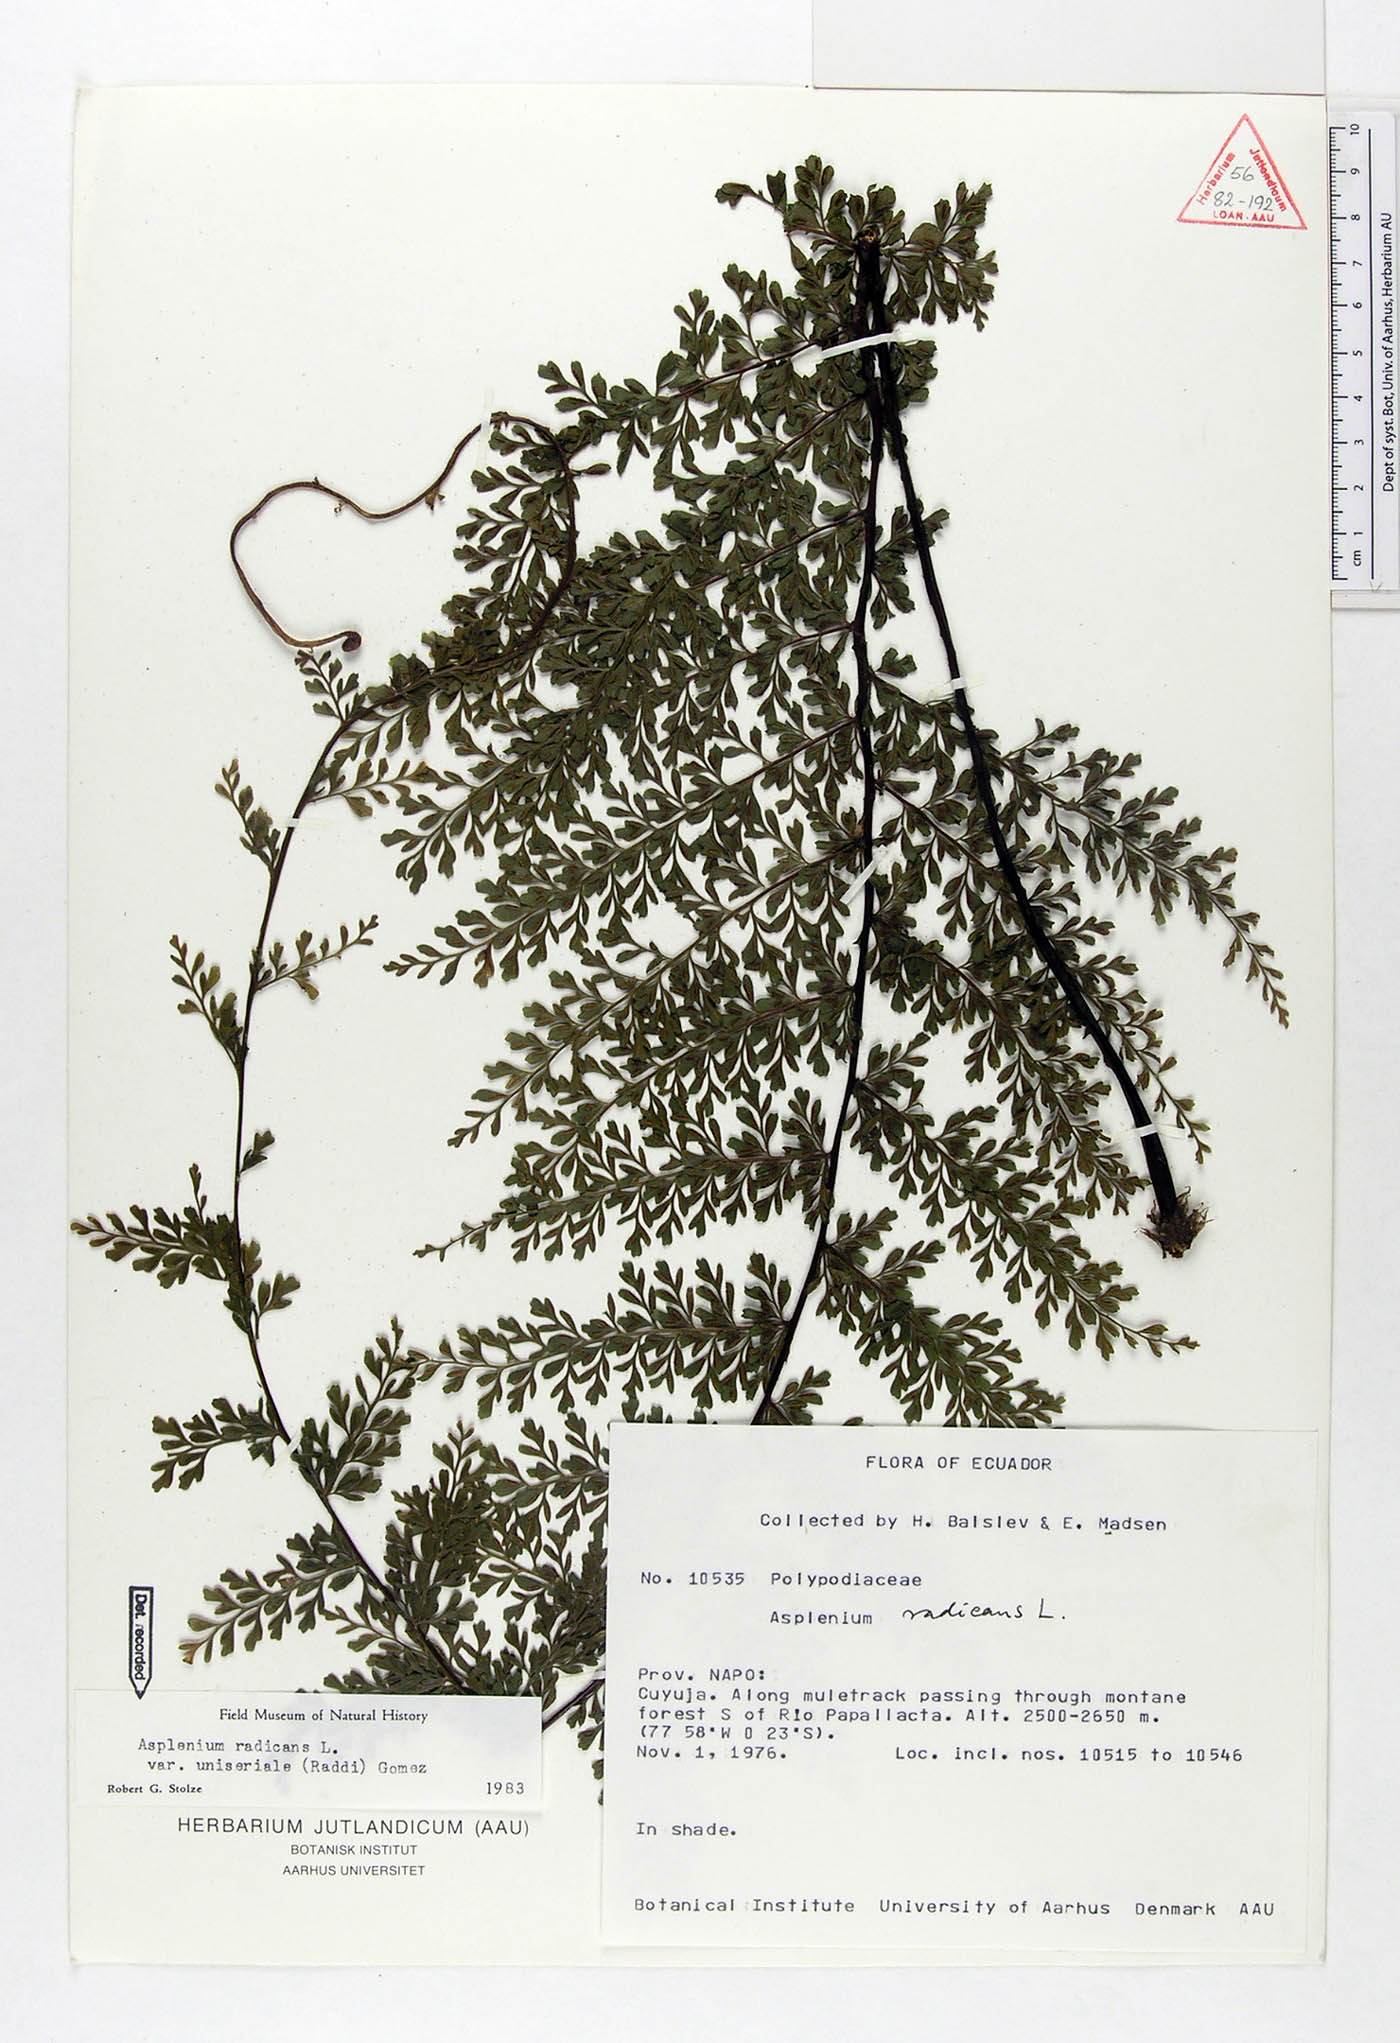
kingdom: Plantae
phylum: Tracheophyta
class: Polypodiopsida
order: Polypodiales
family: Aspleniaceae
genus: Asplenium
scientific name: Asplenium uniseriale
